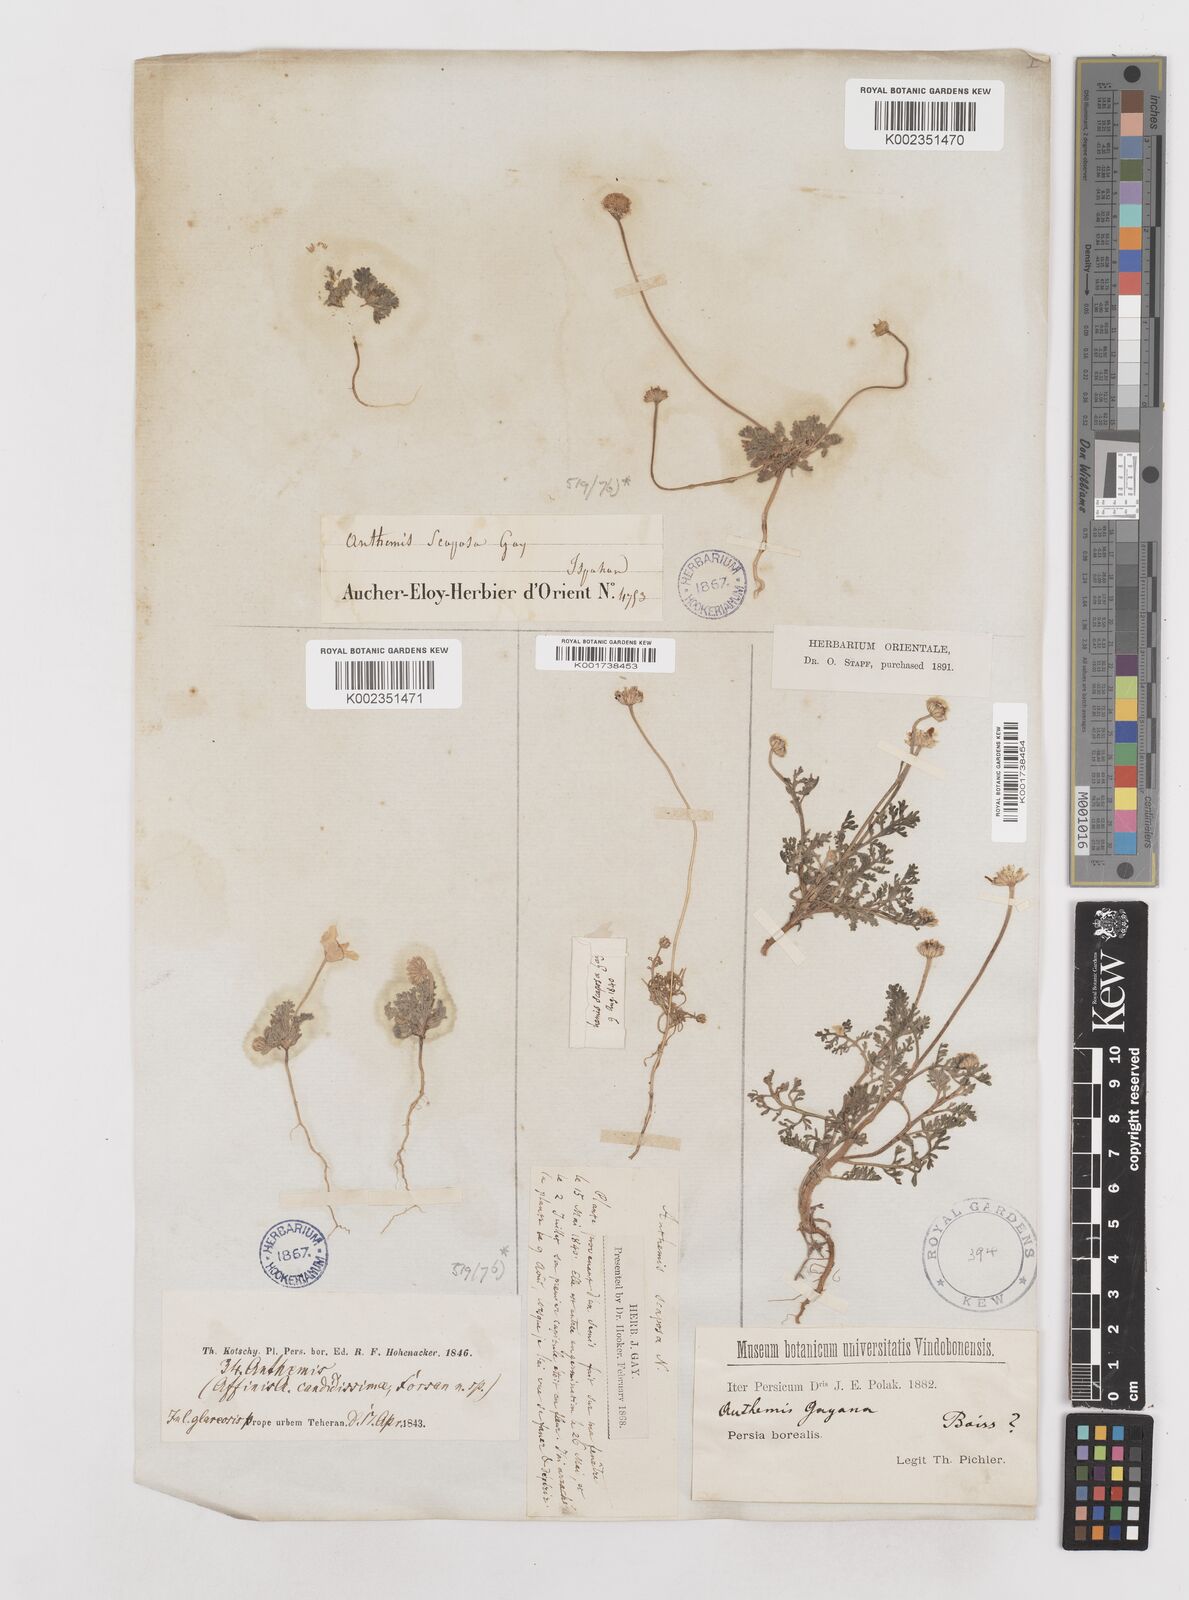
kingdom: Plantae
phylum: Tracheophyta
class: Magnoliopsida
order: Asterales
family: Asteraceae
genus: Anthemis
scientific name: Anthemis gayana
